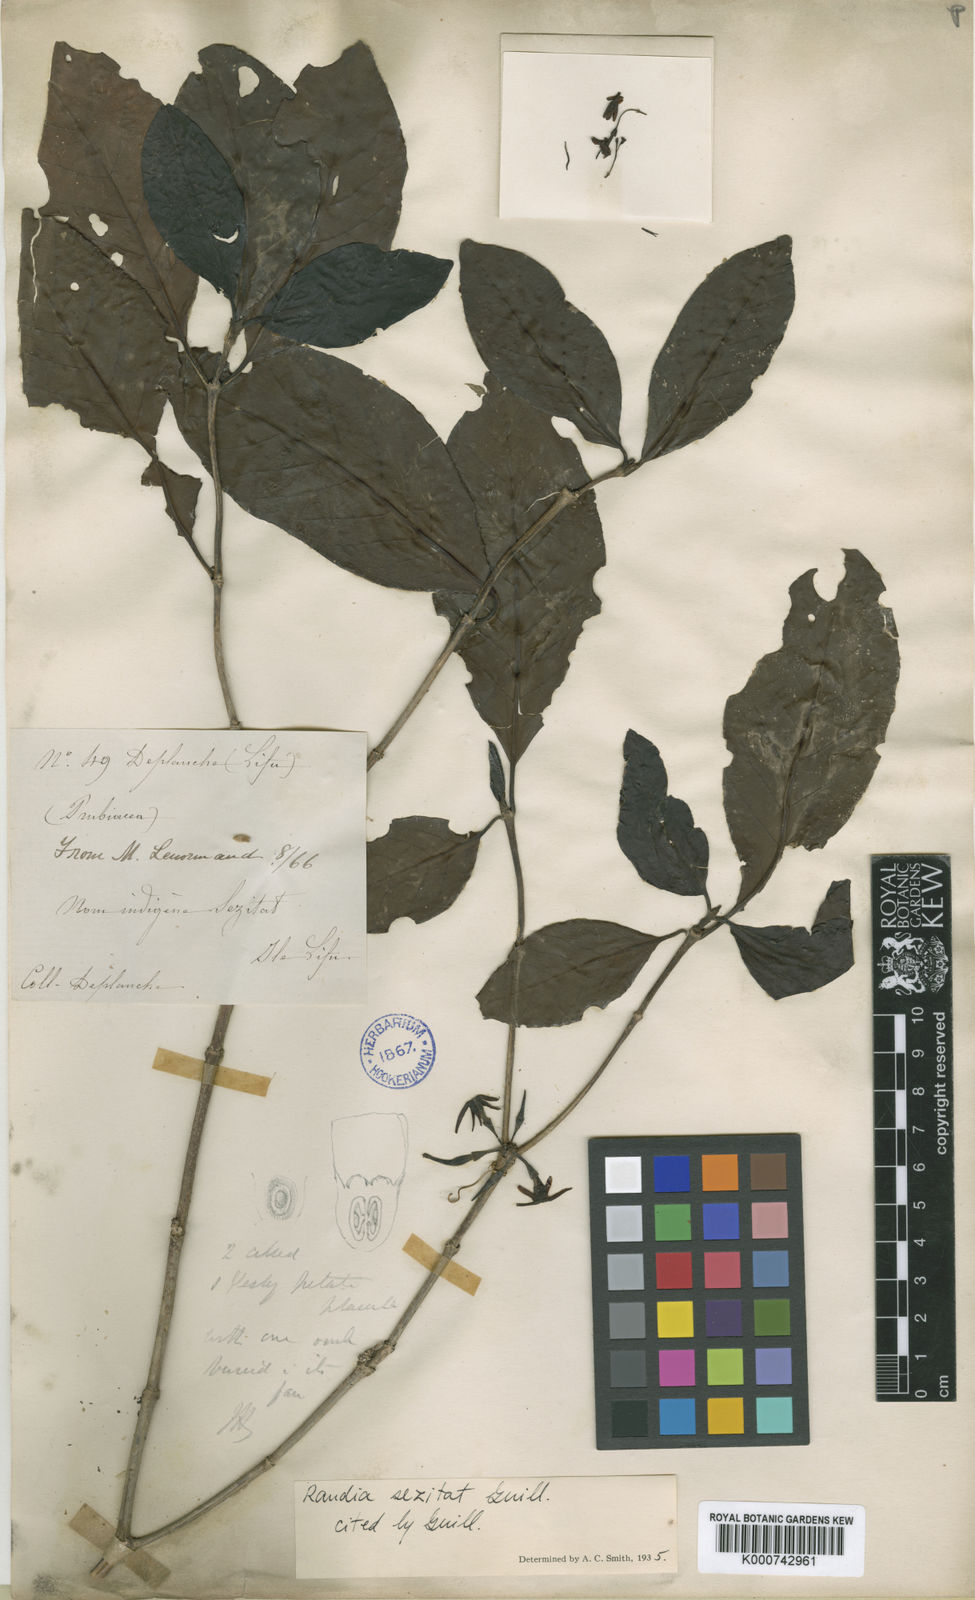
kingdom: Plantae
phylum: Tracheophyta
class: Magnoliopsida
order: Gentianales
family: Rubiaceae
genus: Atractocarpus
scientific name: Atractocarpus sezitat
